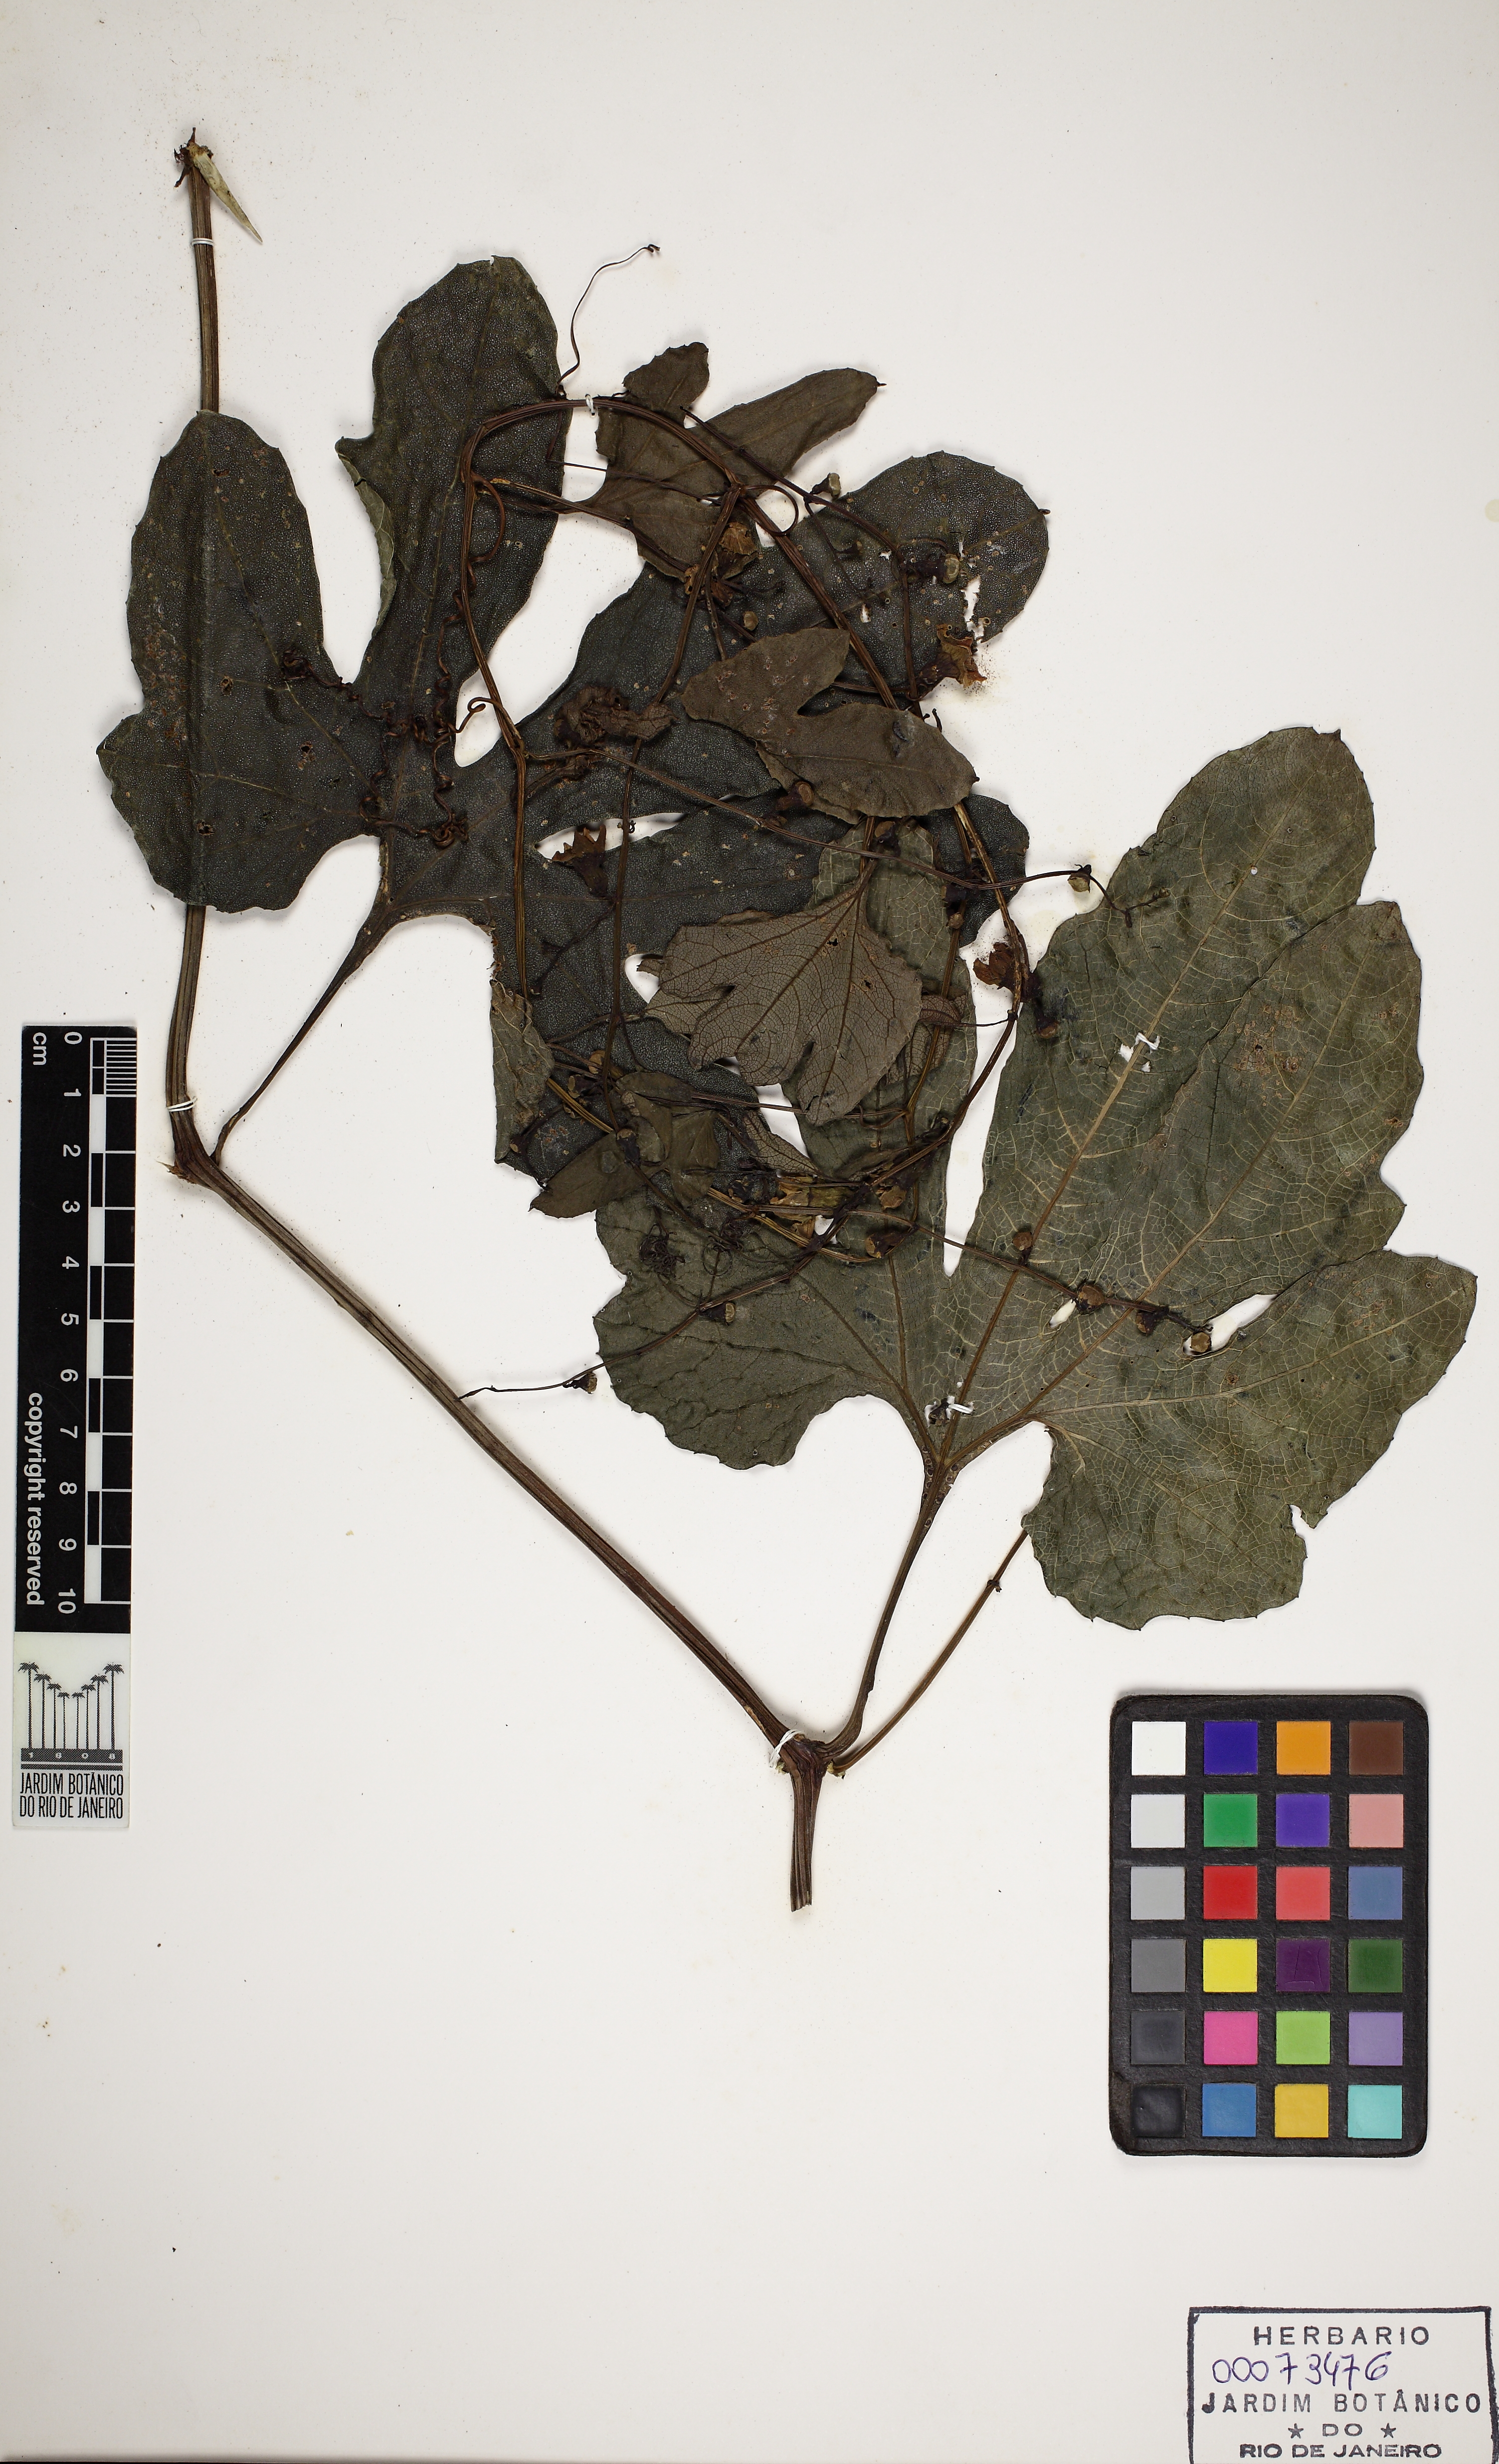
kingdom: Plantae
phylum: Tracheophyta
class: Magnoliopsida
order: Cucurbitales
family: Cucurbitaceae
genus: Cayaponia
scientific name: Cayaponia tayuya
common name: Tayuya
